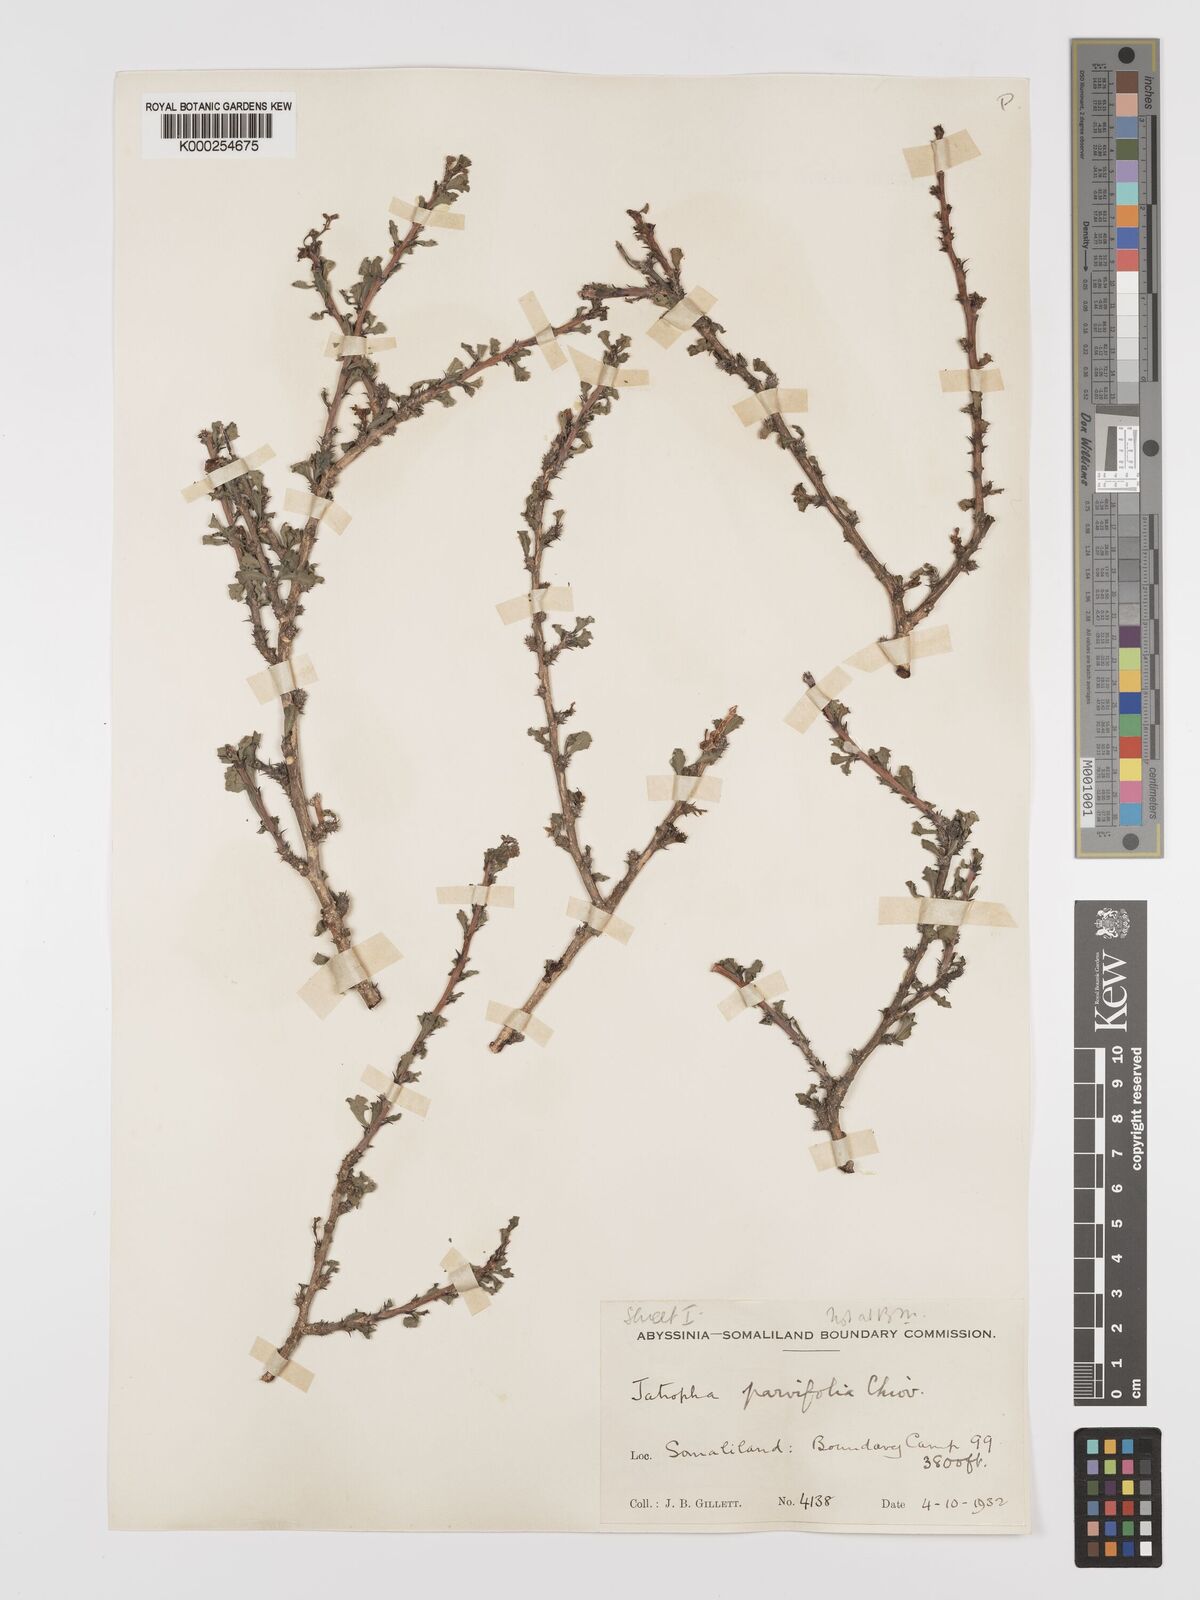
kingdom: Plantae
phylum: Tracheophyta
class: Magnoliopsida
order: Malpighiales
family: Euphorbiaceae
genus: Jatropha
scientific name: Jatropha rivae
